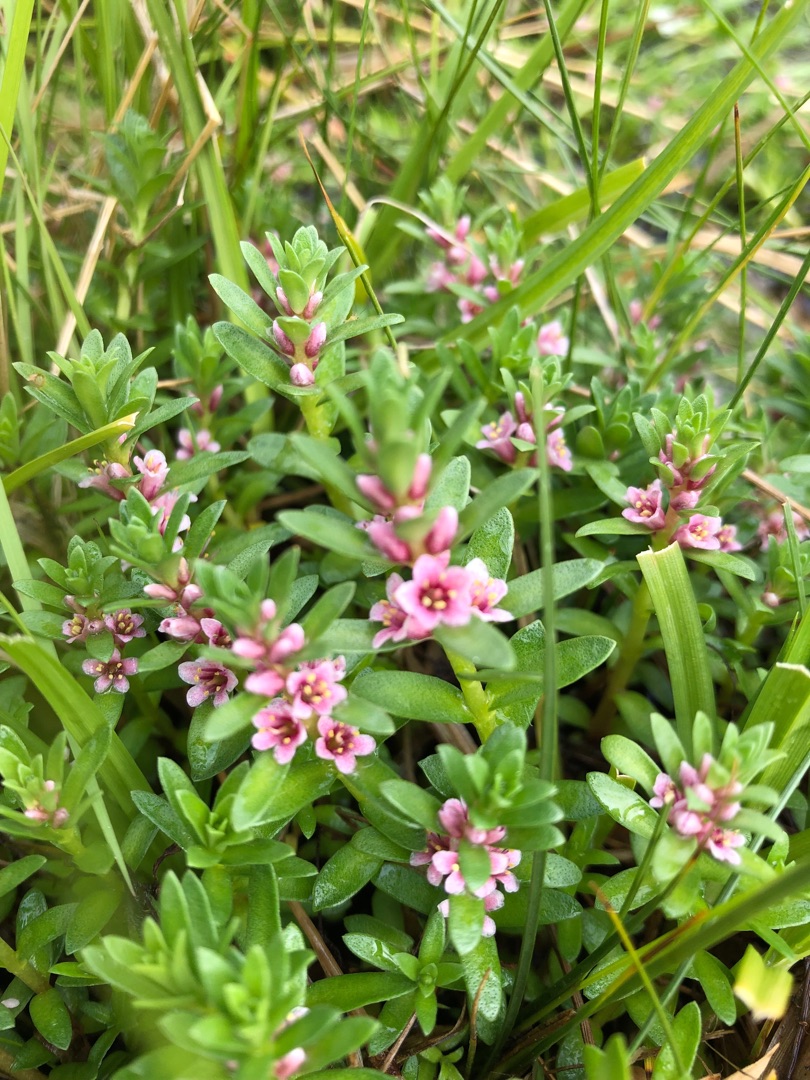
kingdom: Plantae
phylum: Tracheophyta
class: Magnoliopsida
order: Ericales
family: Primulaceae
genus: Lysimachia
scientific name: Lysimachia maritima
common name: Sandkryb
